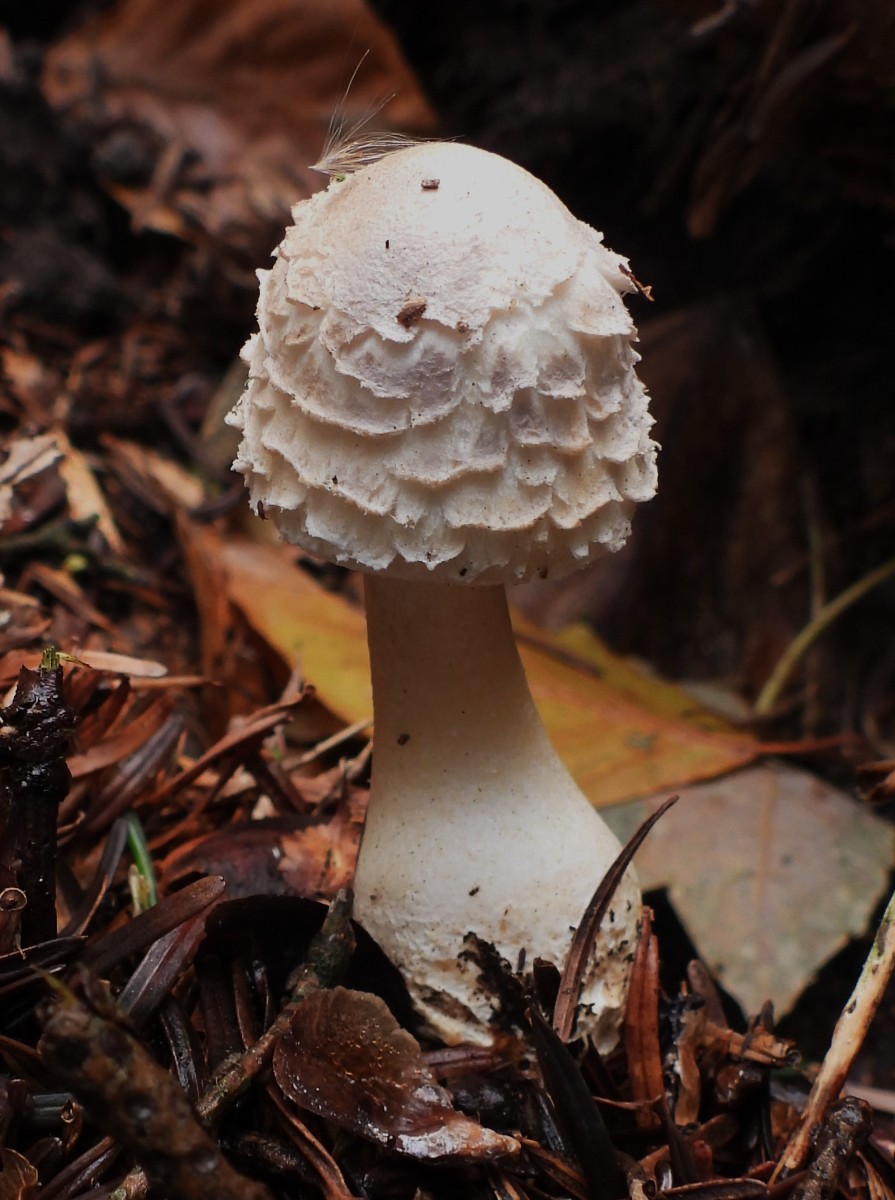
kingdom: Fungi
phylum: Basidiomycota
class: Agaricomycetes
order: Agaricales
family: Agaricaceae
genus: Leucoagaricus
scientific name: Leucoagaricus nympharum
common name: gran-silkehat
